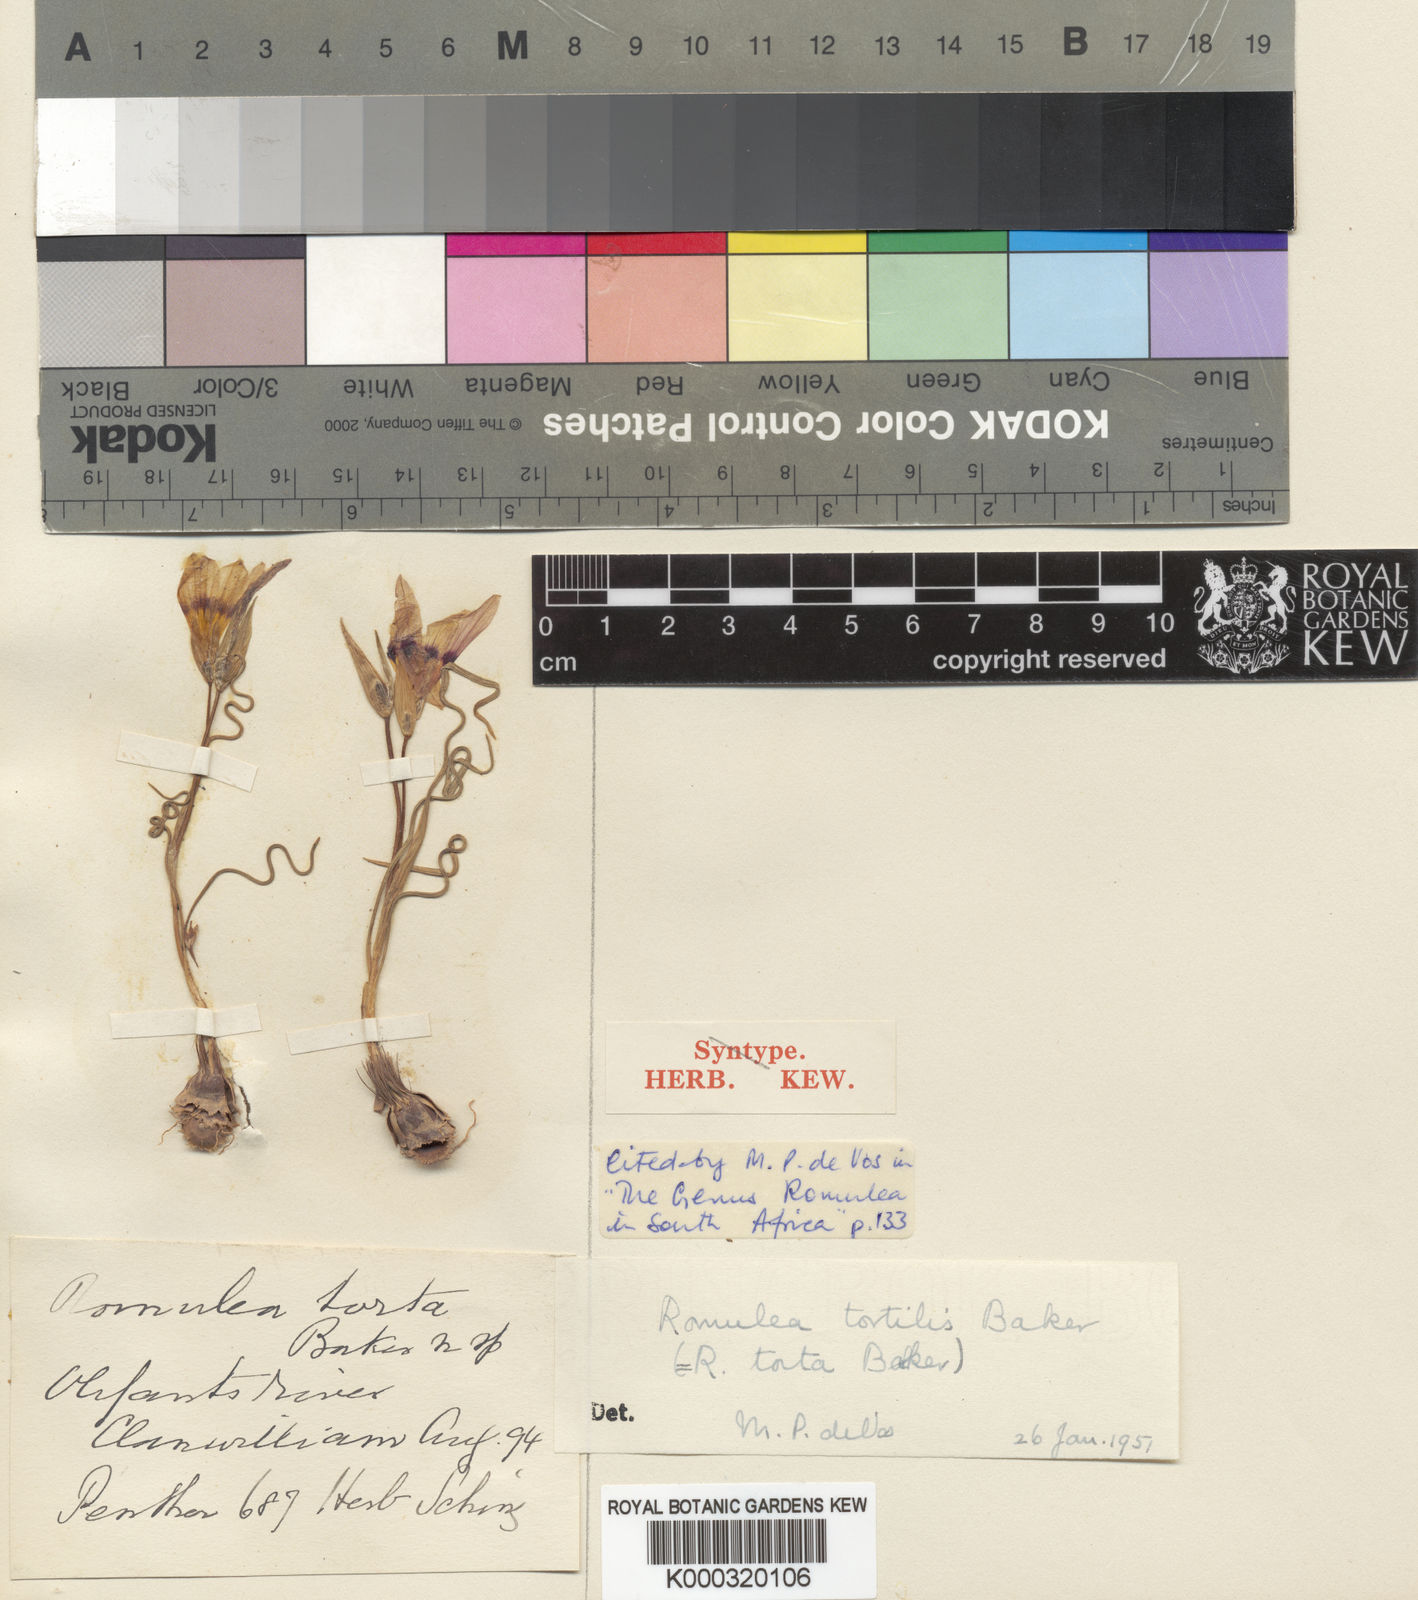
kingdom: Plantae
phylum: Tracheophyta
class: Liliopsida
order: Asparagales
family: Iridaceae
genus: Romulea
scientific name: Romulea tortilis
